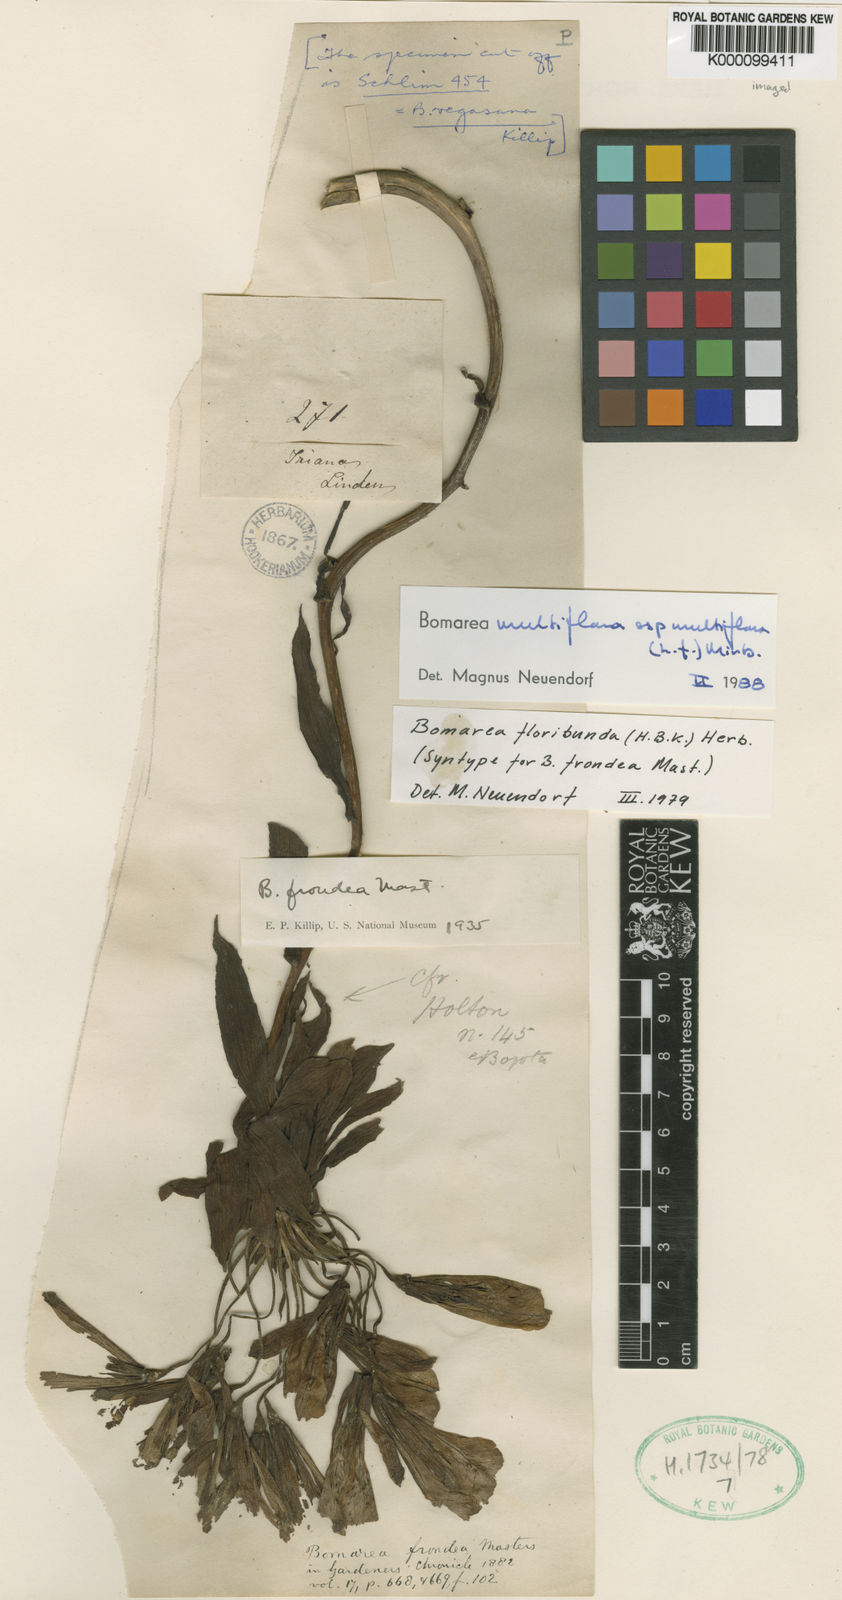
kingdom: Plantae
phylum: Tracheophyta
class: Liliopsida
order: Liliales
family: Alstroemeriaceae
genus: Bomarea
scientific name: Bomarea multiflora
